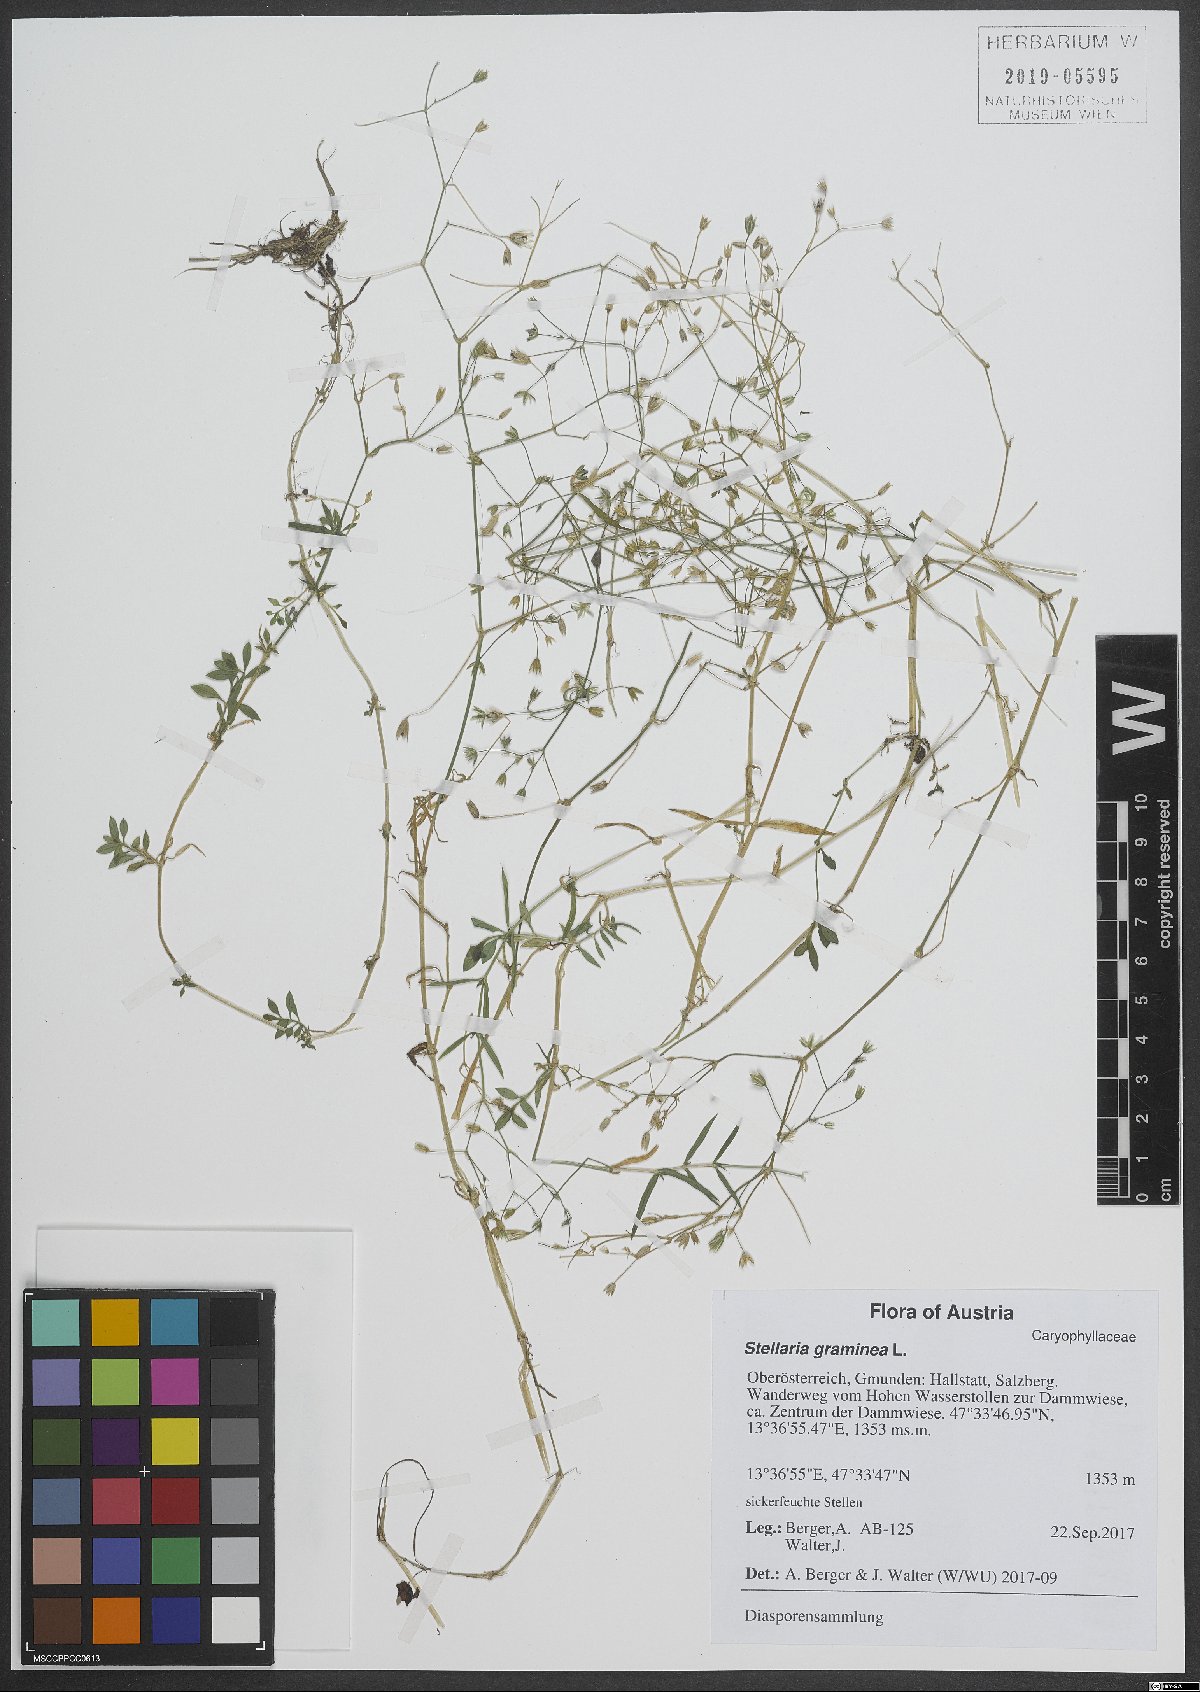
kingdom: Plantae
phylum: Tracheophyta
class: Magnoliopsida
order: Caryophyllales
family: Caryophyllaceae
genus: Stellaria
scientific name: Stellaria graminea
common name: Grass-like starwort
